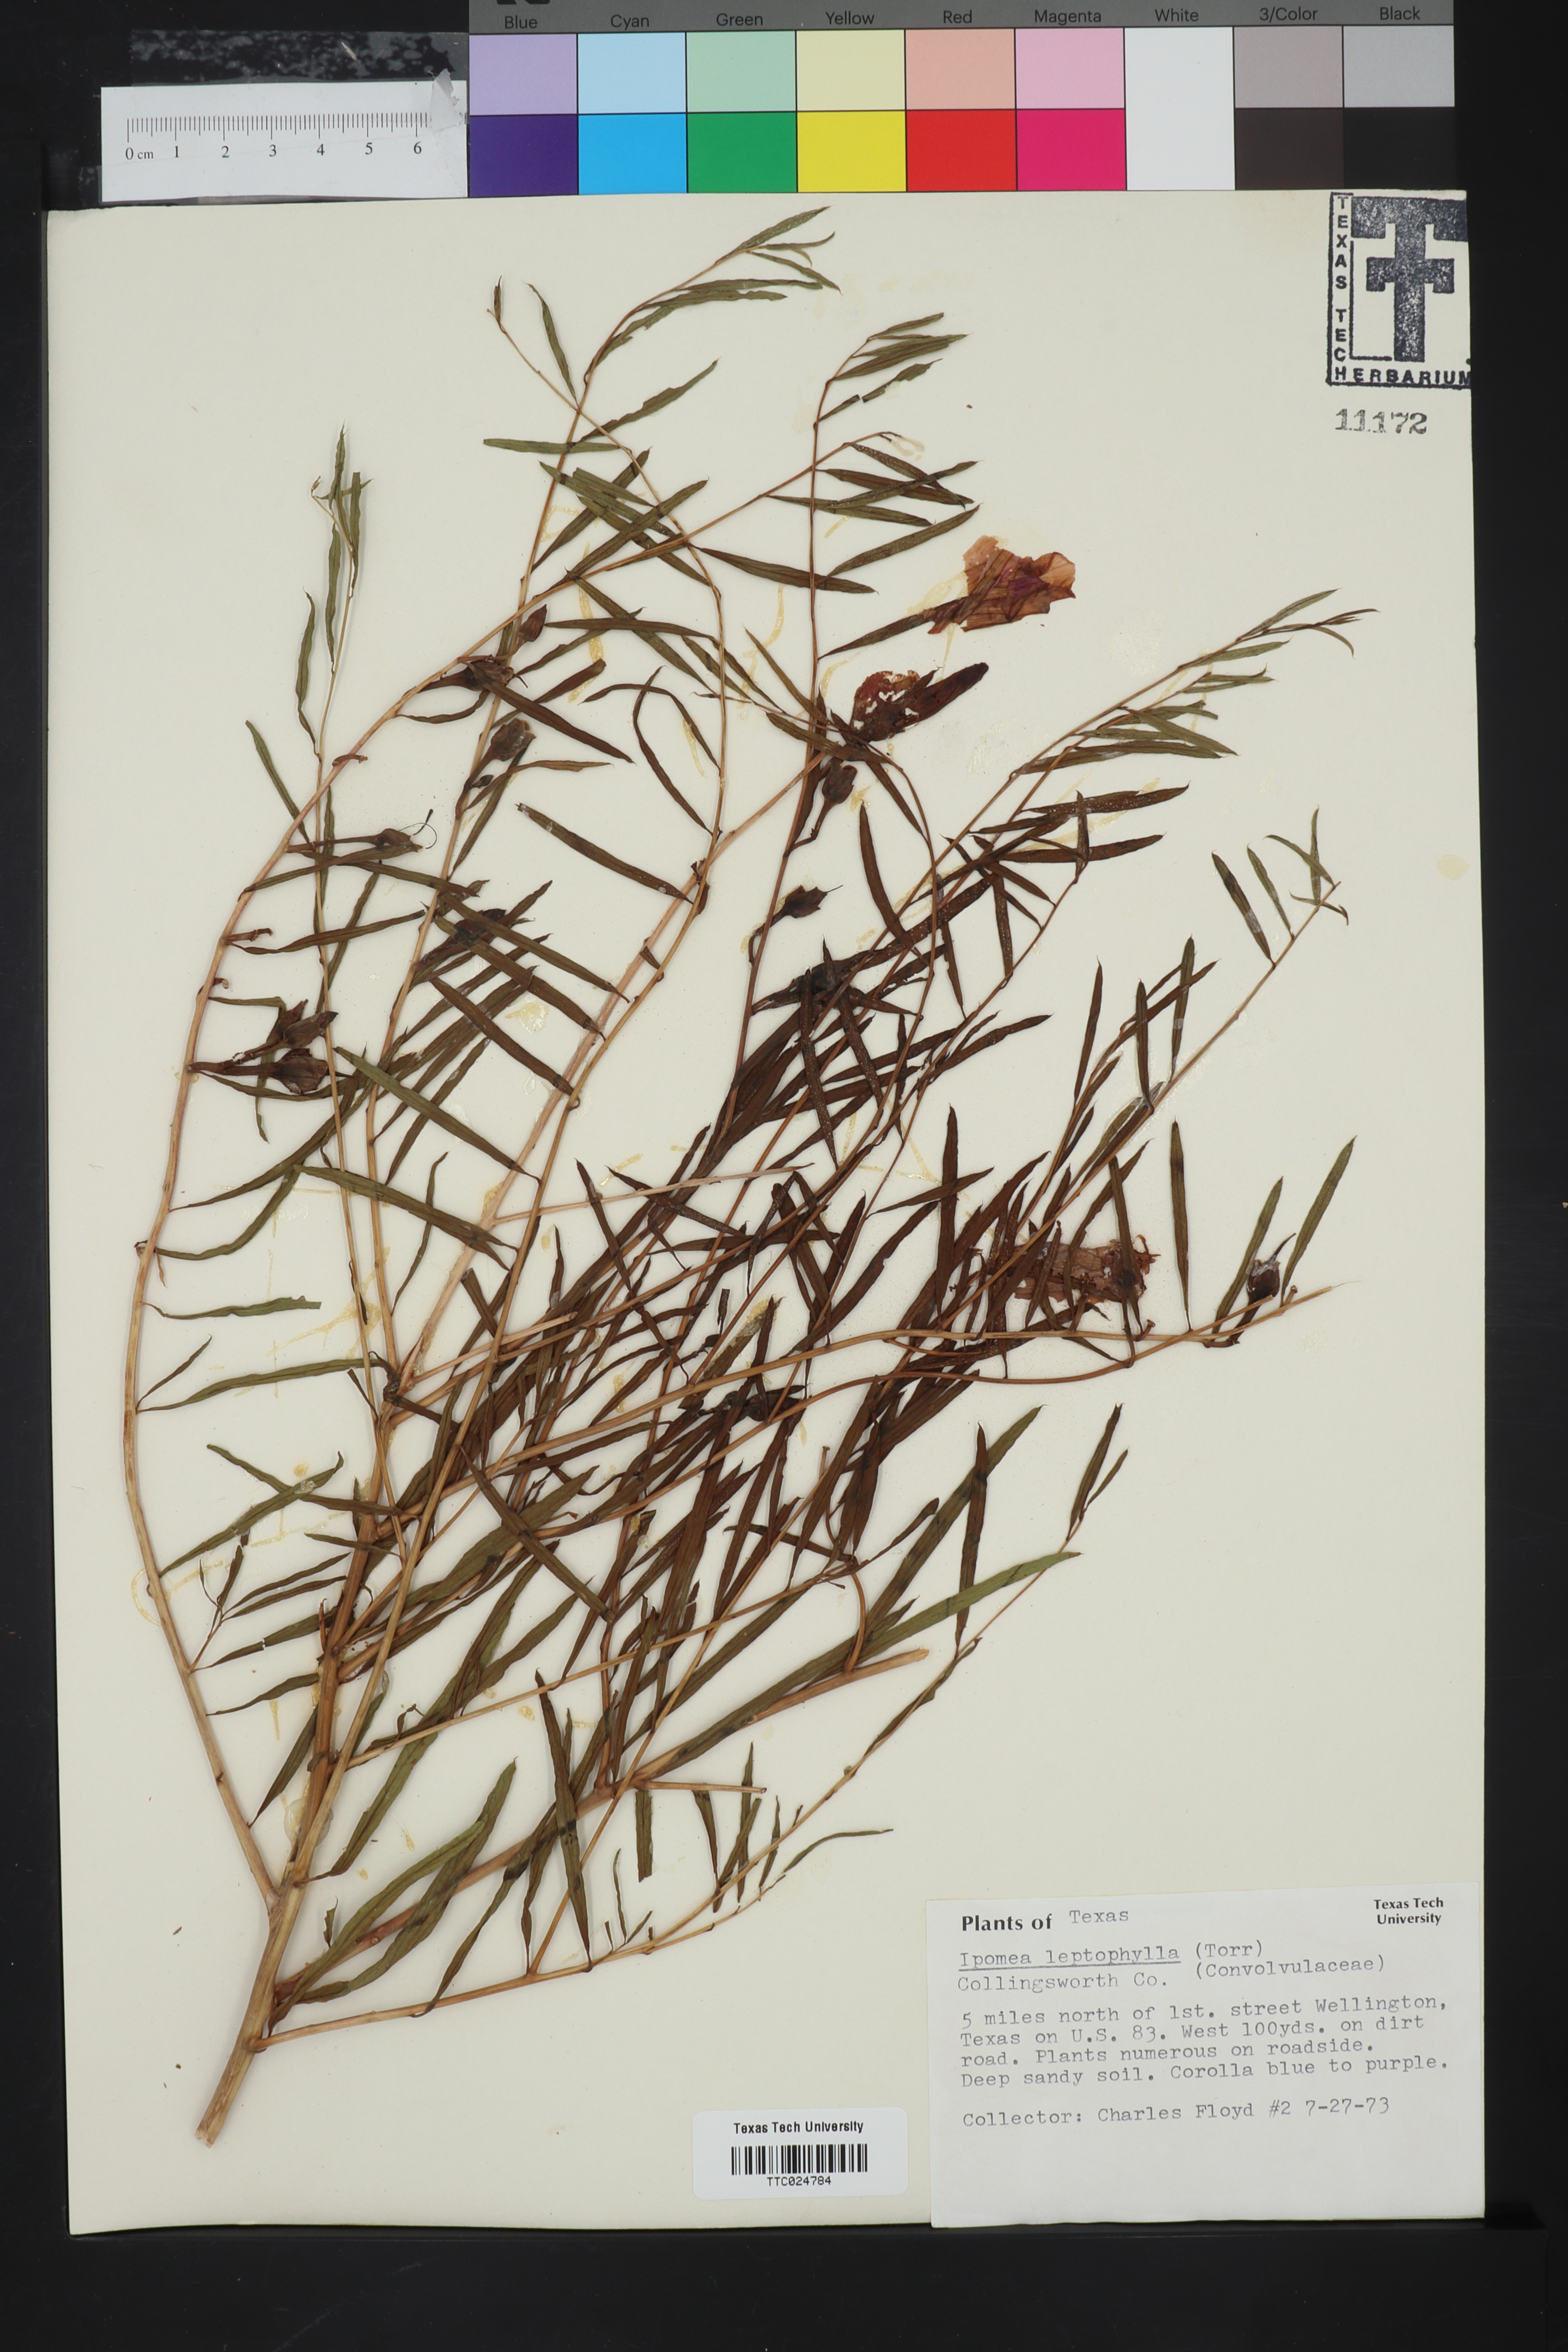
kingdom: Plantae
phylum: Tracheophyta
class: Magnoliopsida
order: Solanales
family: Convolvulaceae
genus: Ipomoea
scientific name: Ipomoea leptophylla
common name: Bush moonflower
